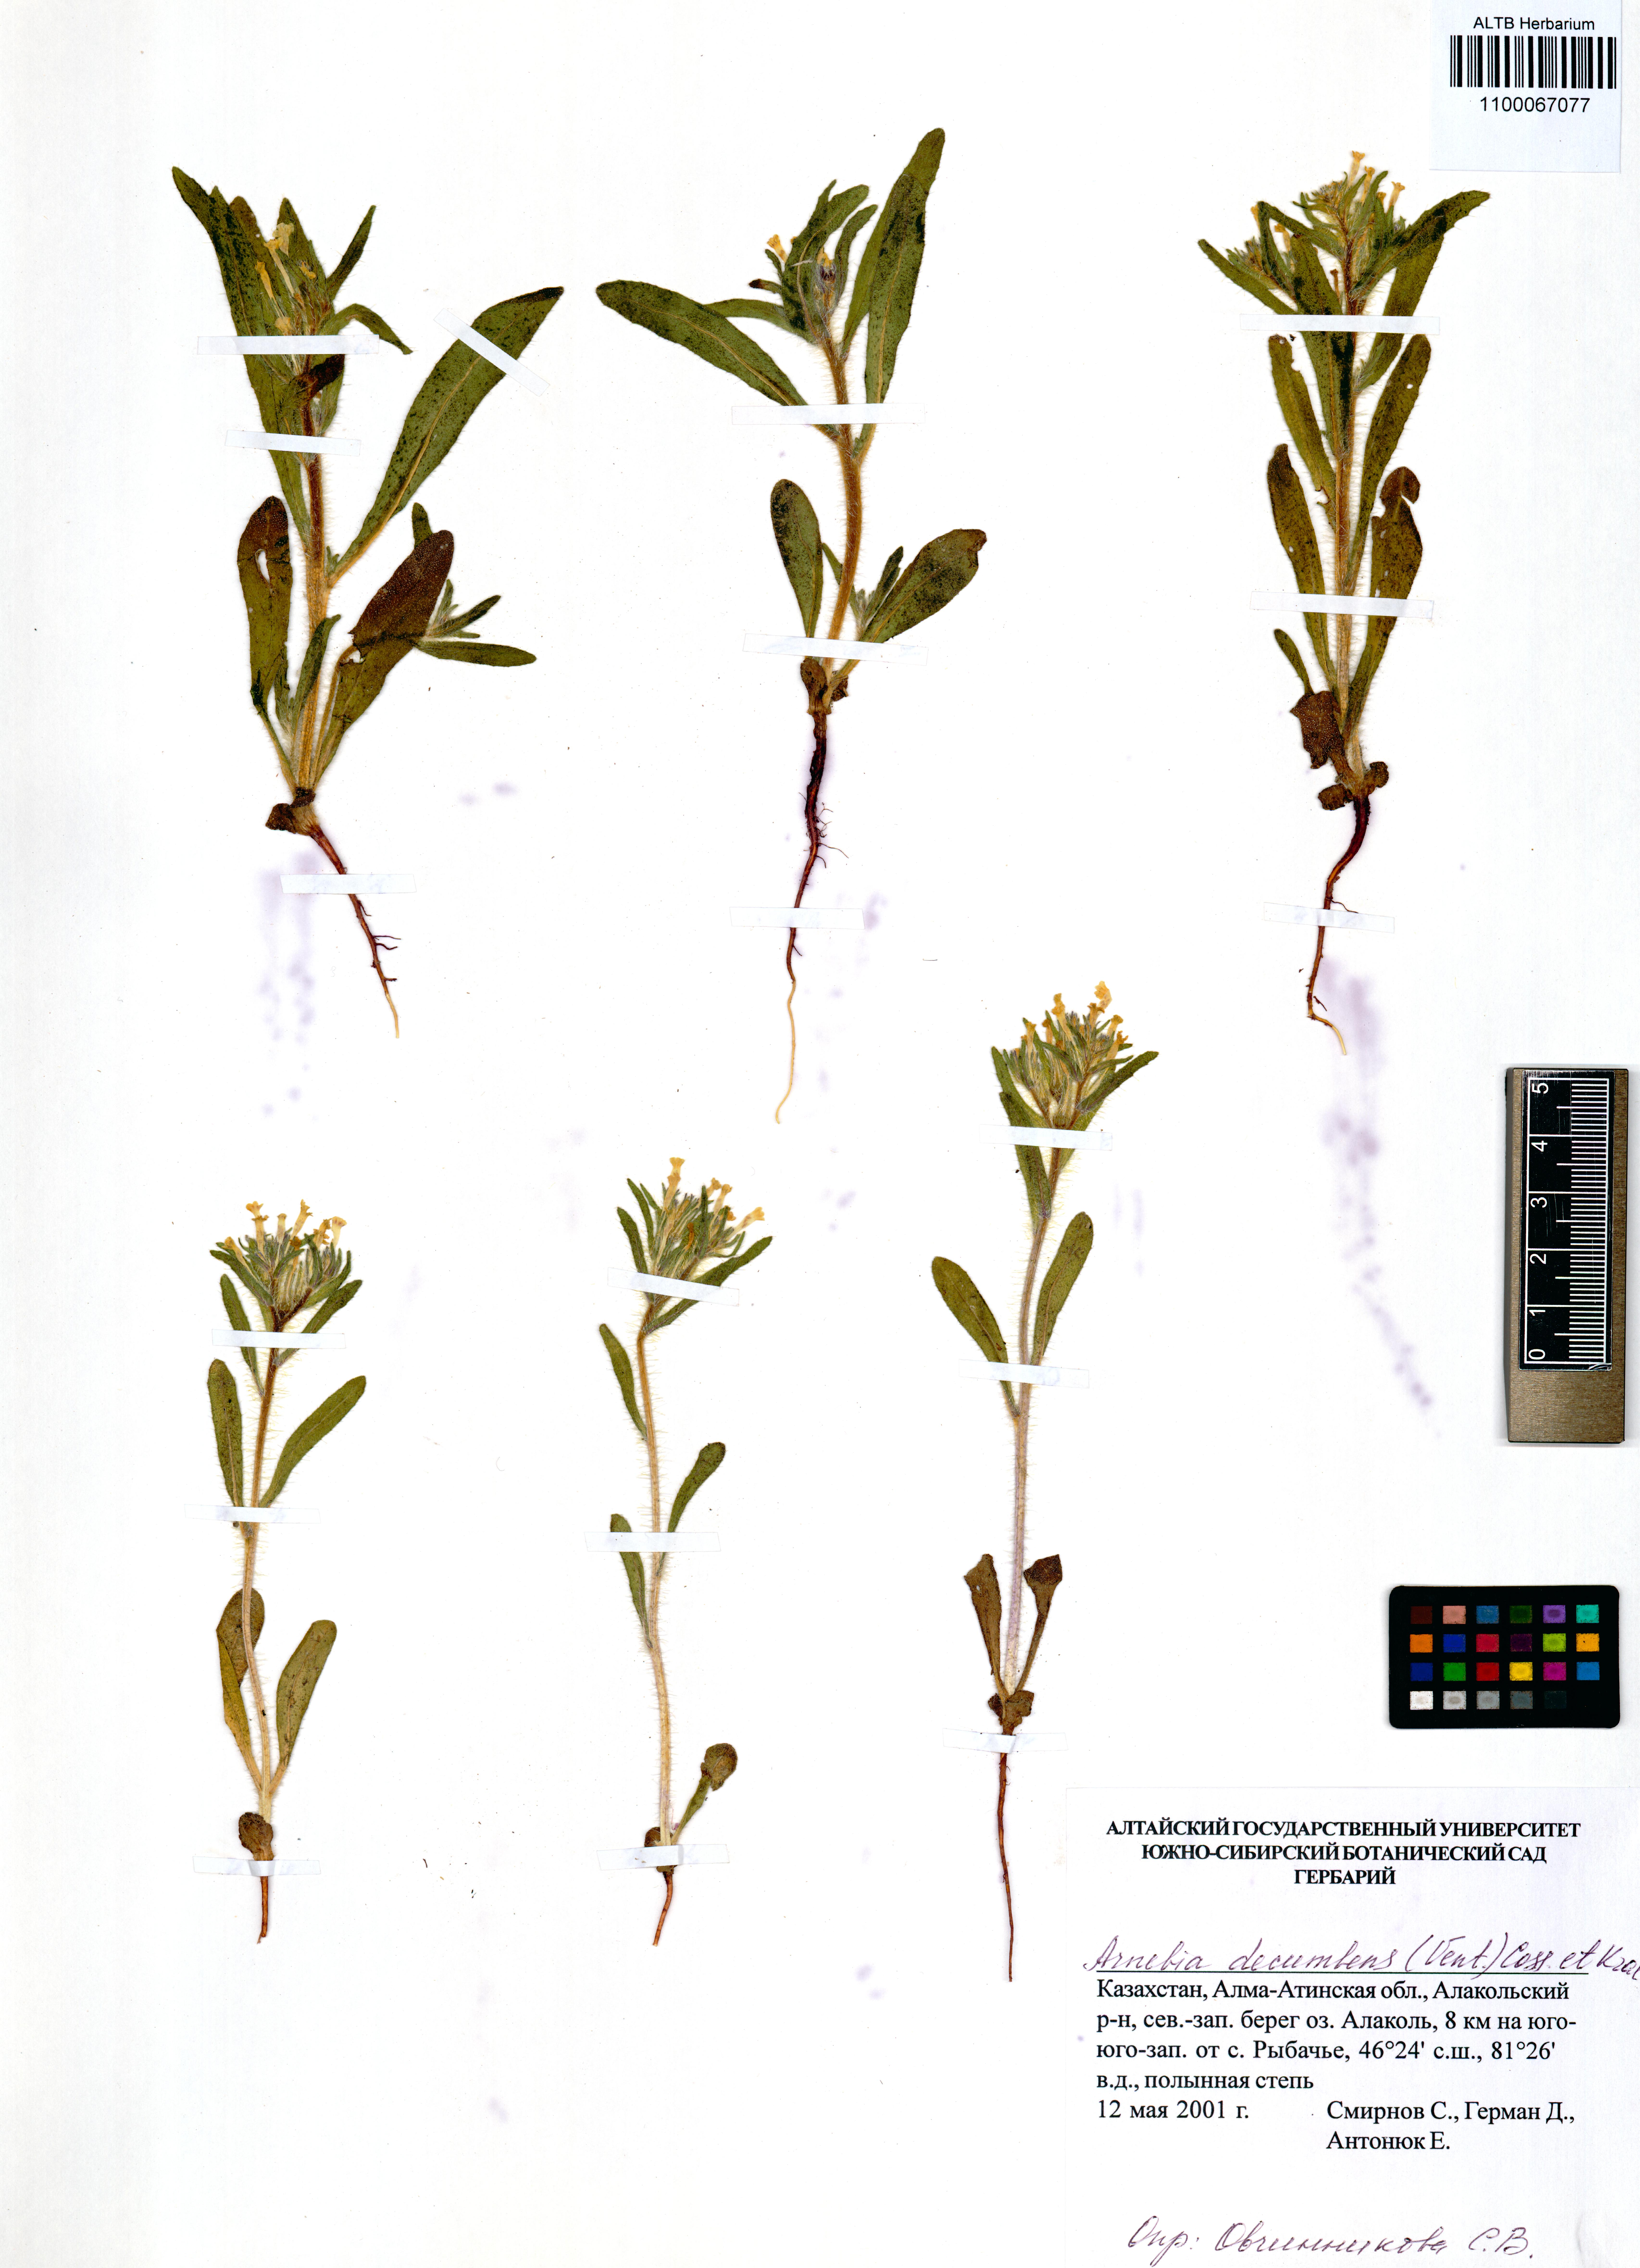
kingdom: Plantae
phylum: Tracheophyta
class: Magnoliopsida
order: Boraginales
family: Boraginaceae
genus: Arnebia
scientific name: Arnebia decumbens
